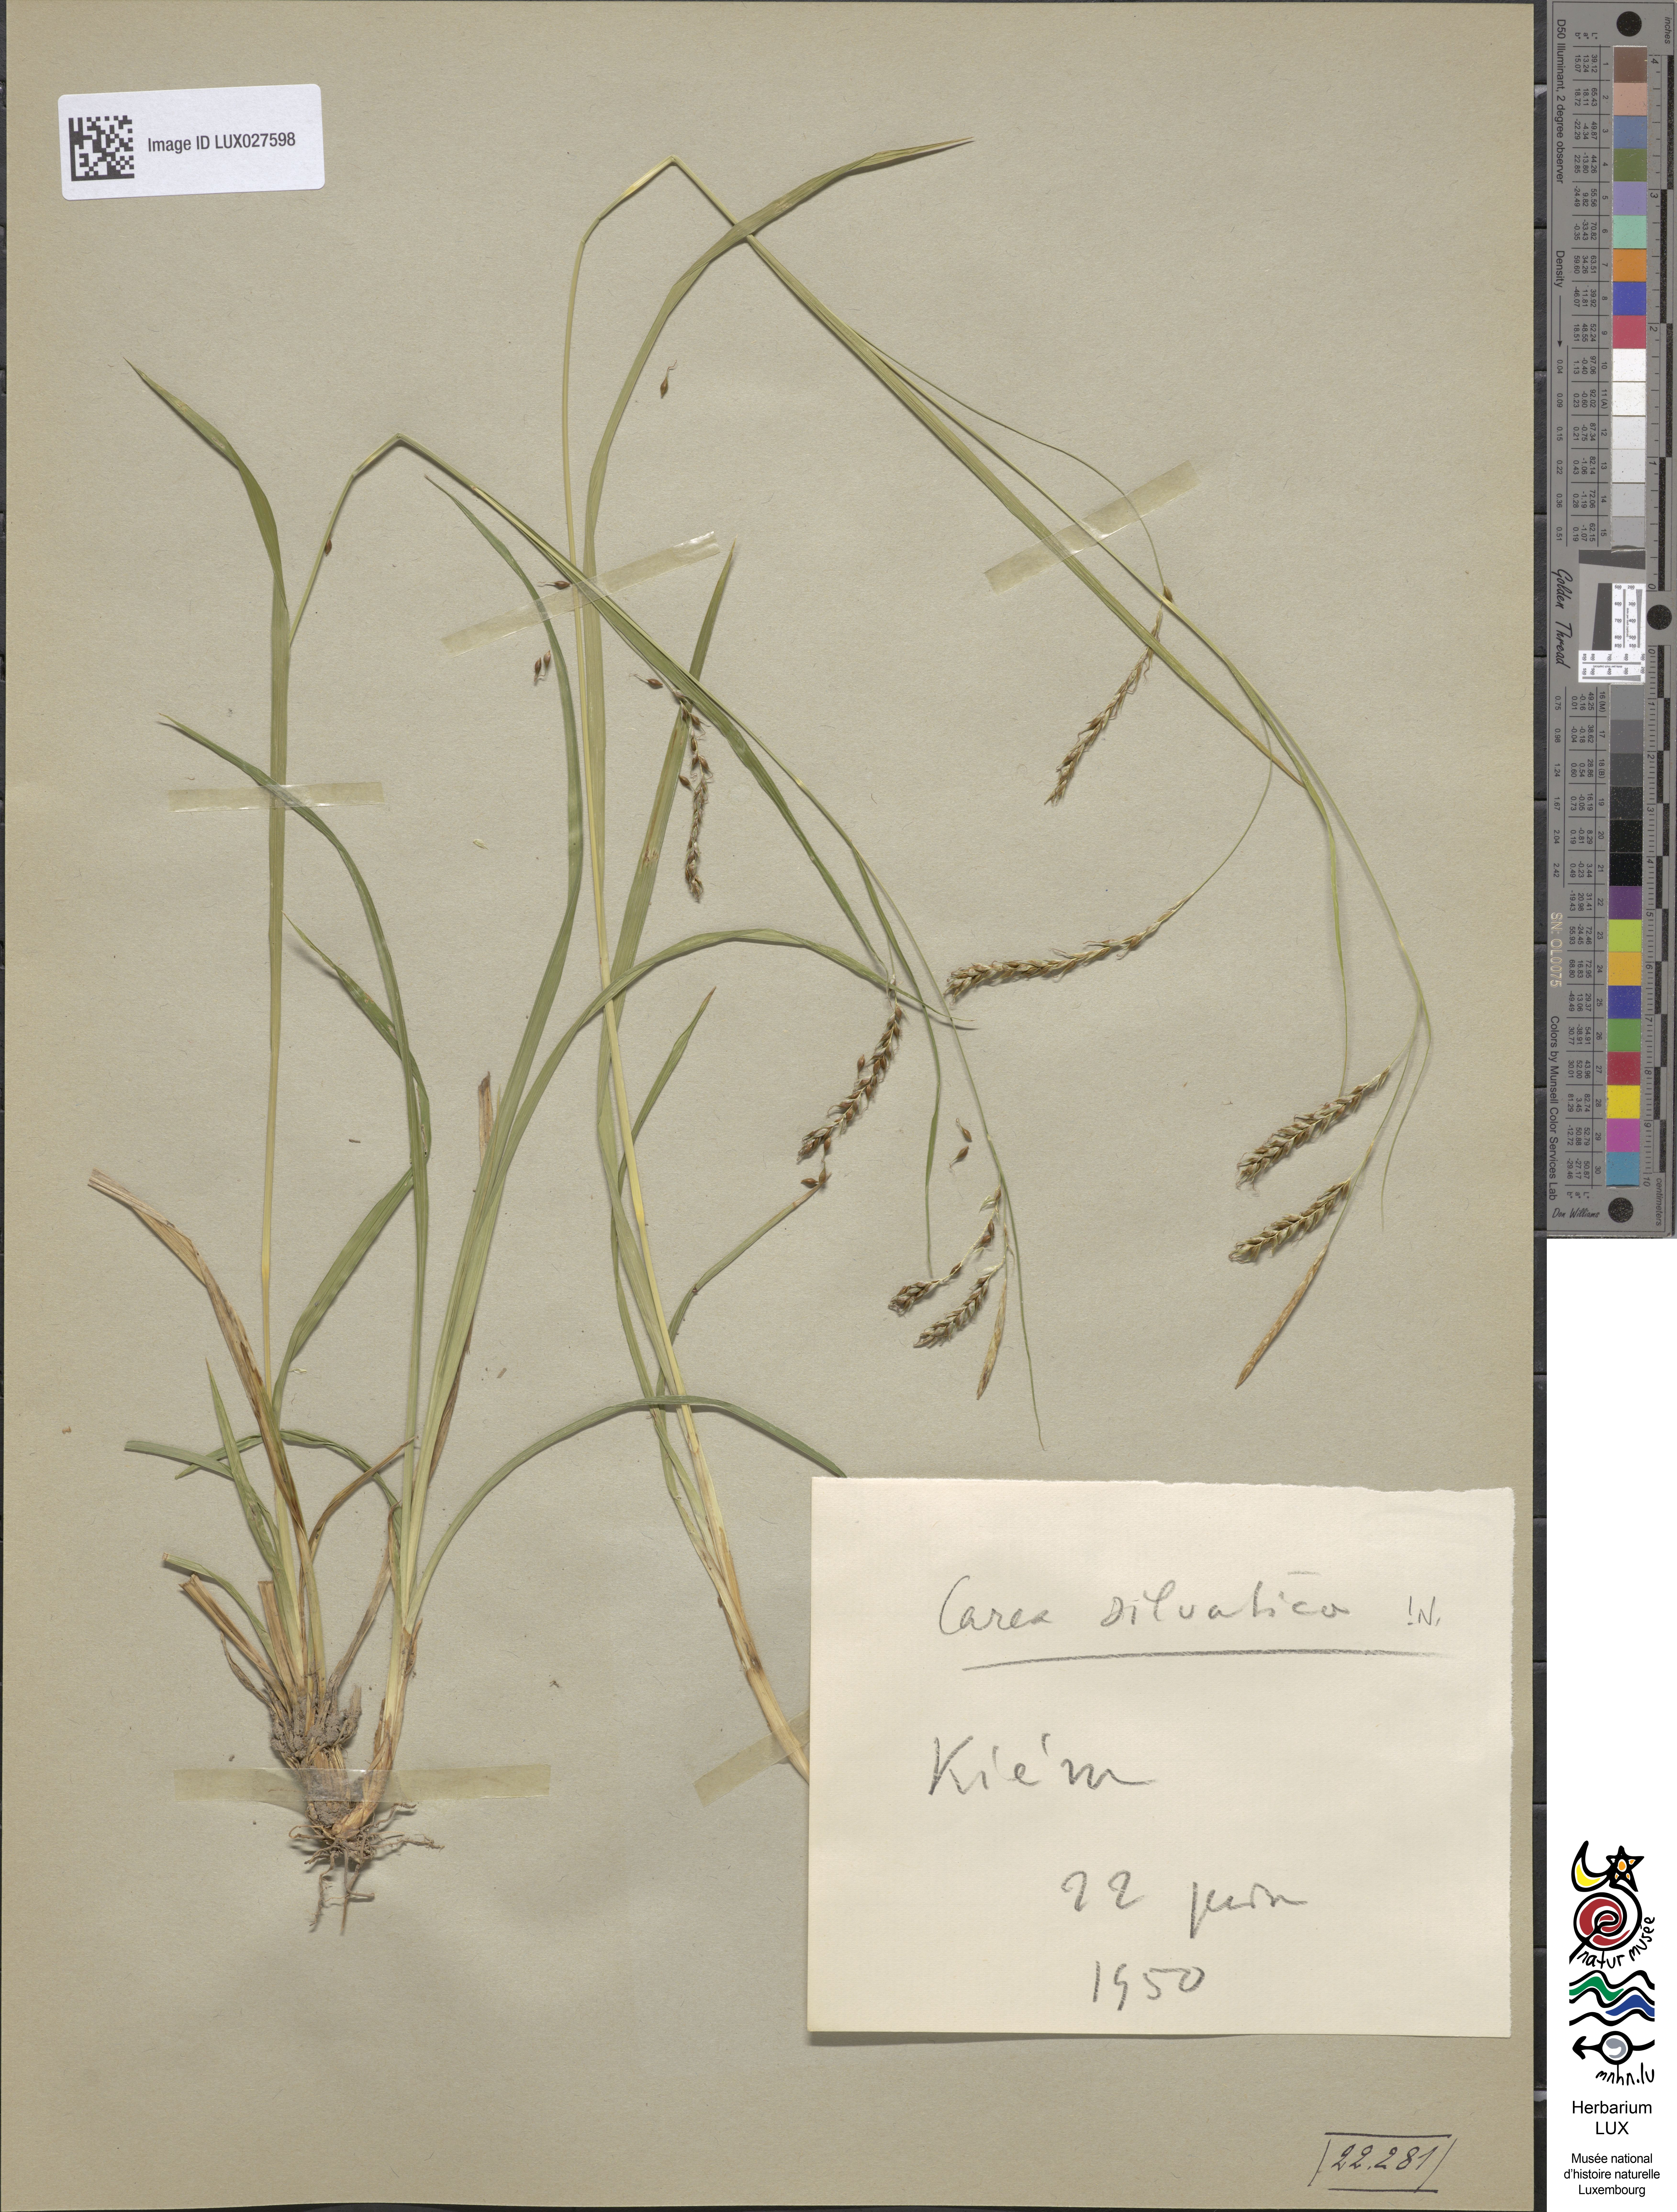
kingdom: Plantae
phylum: Tracheophyta
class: Liliopsida
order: Poales
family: Cyperaceae
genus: Carex
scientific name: Carex sylvatica
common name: Wood-sedge
